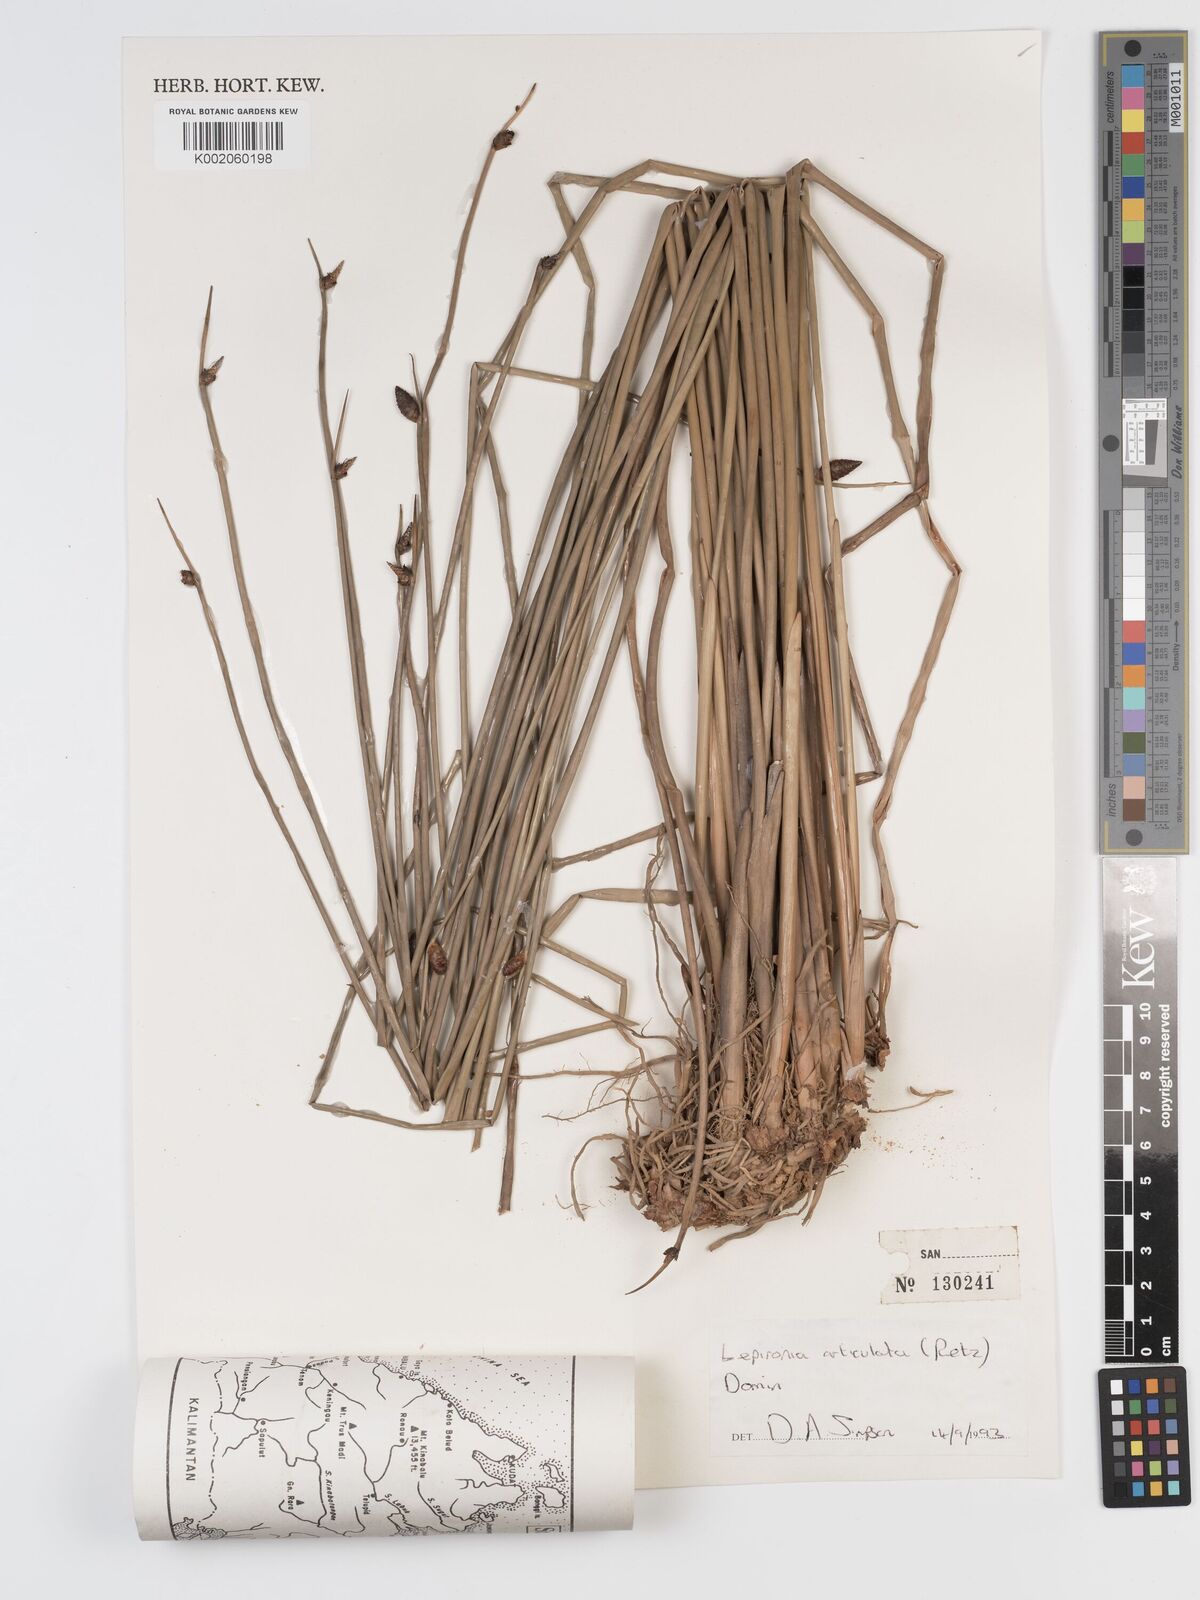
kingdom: Plantae
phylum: Tracheophyta
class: Liliopsida
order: Poales
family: Cyperaceae
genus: Lepironia
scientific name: Lepironia articulata
